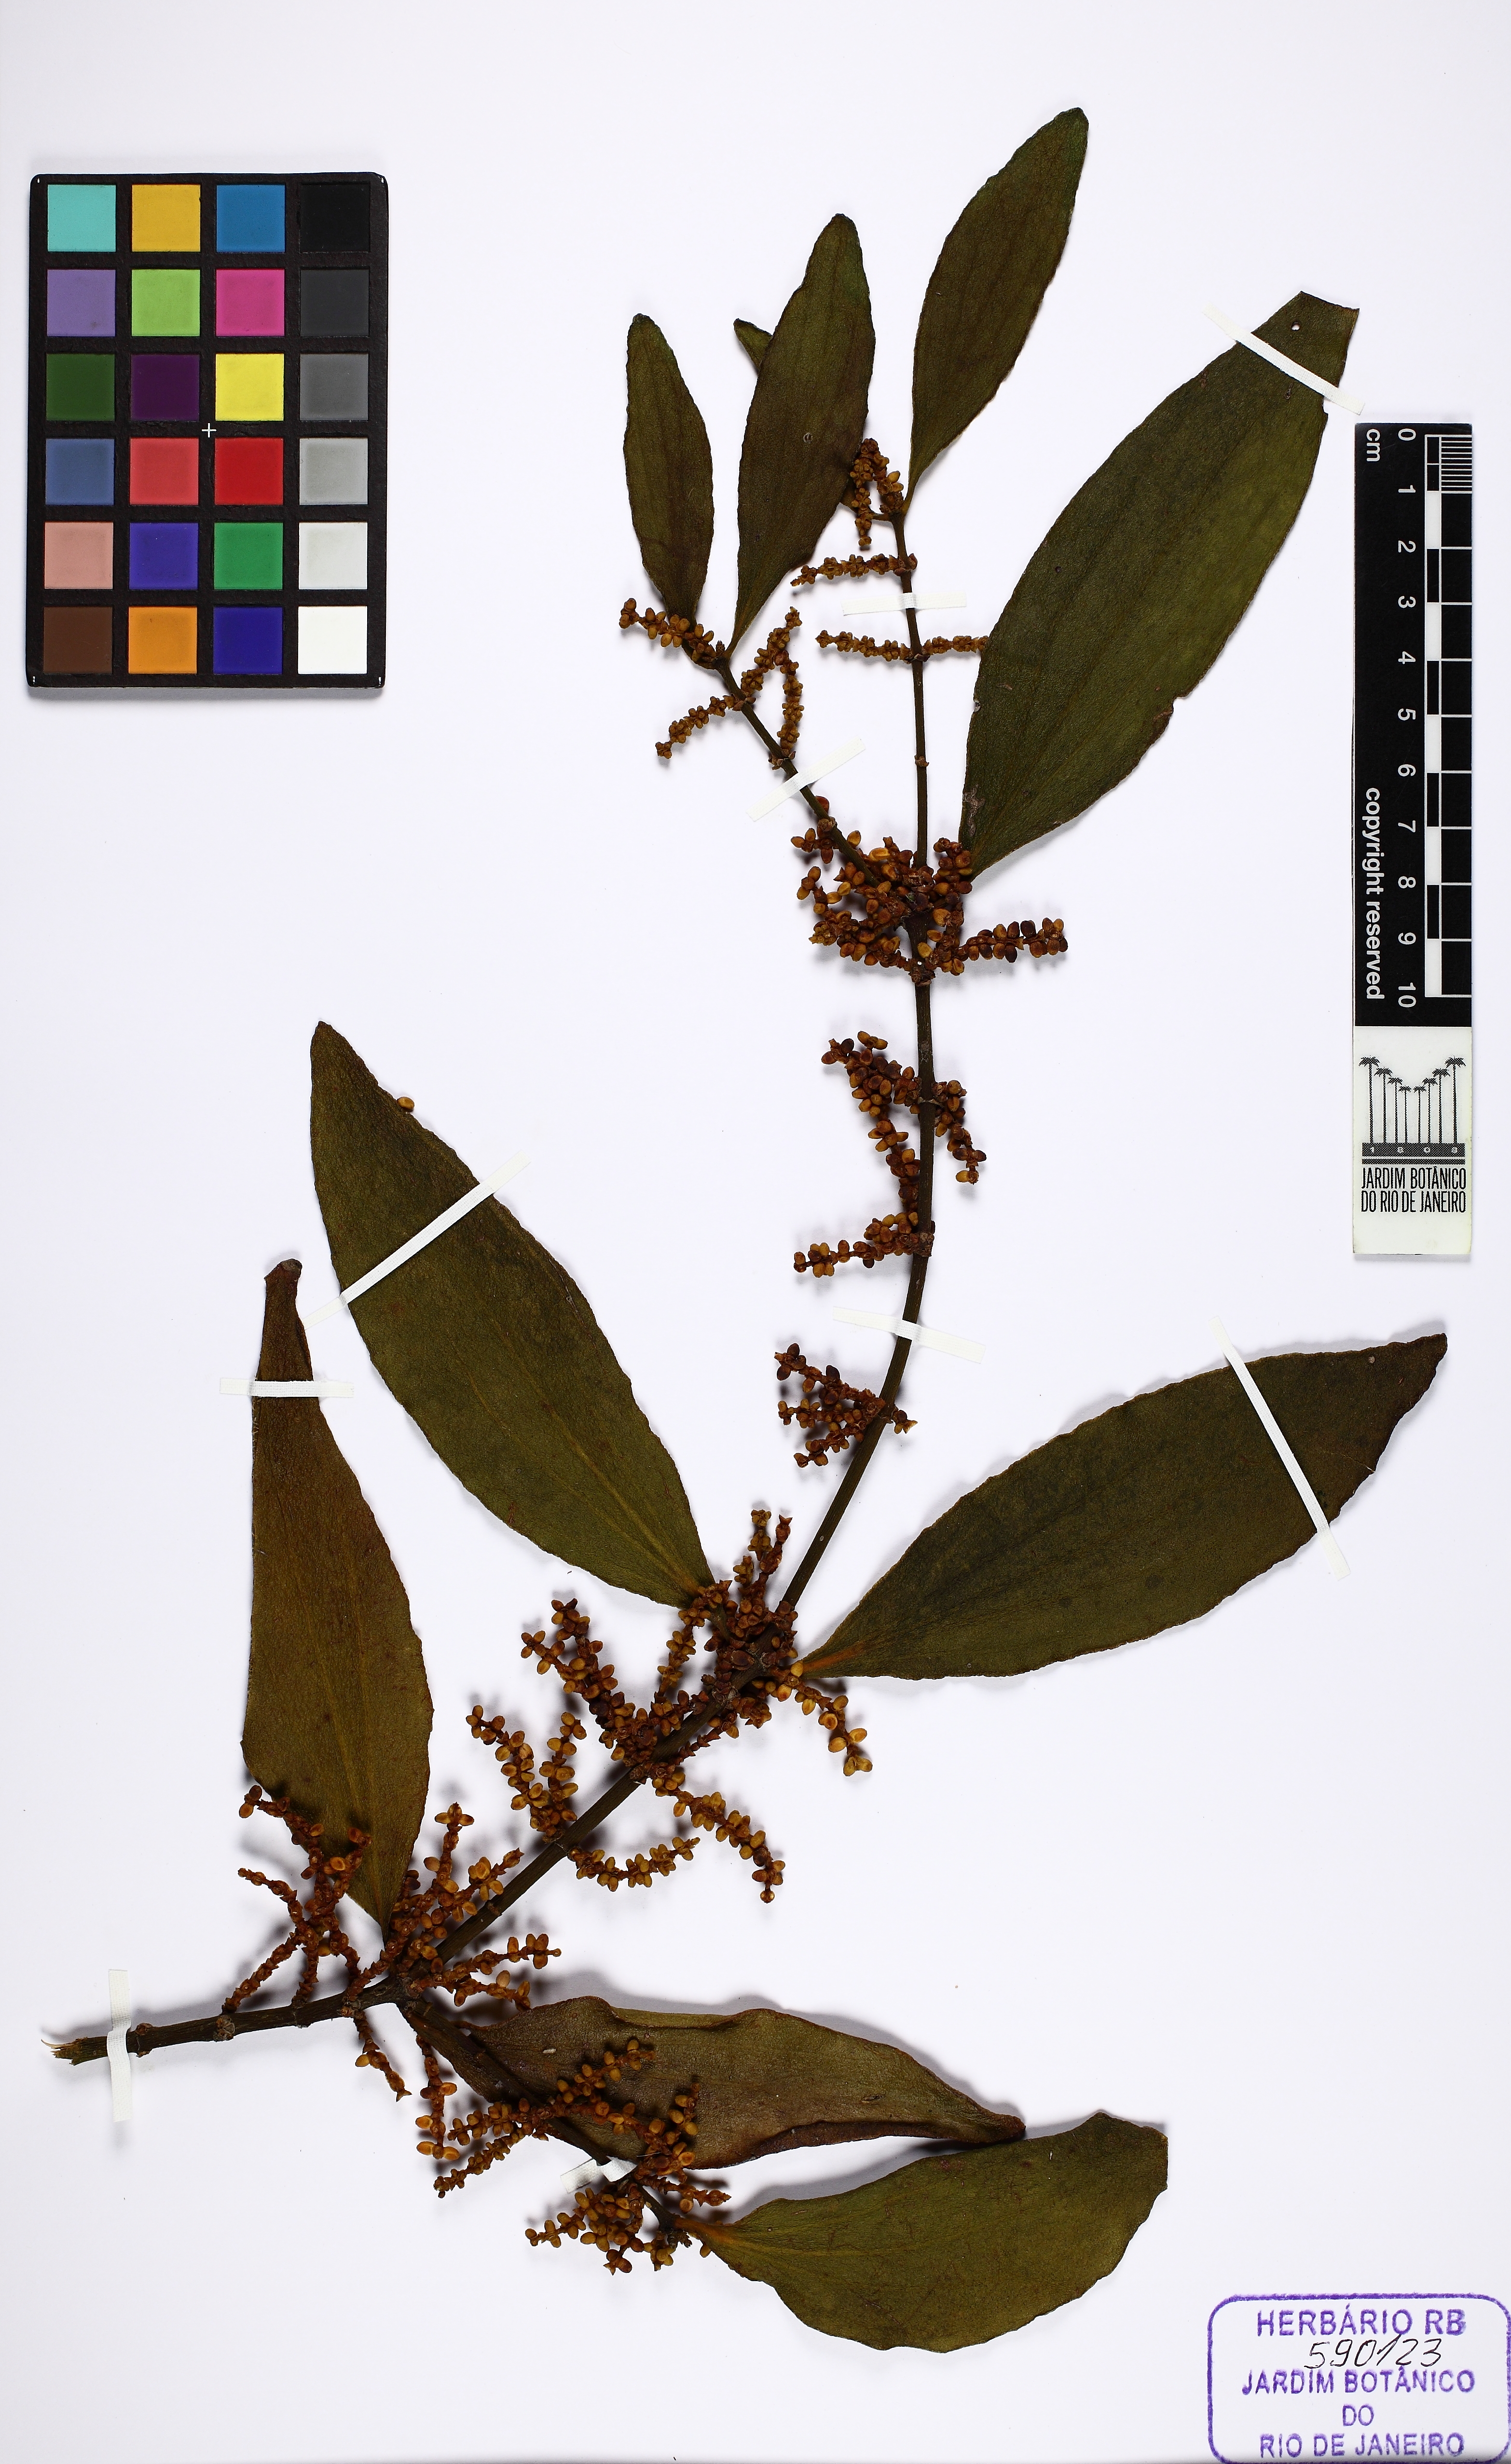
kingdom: Plantae
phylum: Tracheophyta
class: Magnoliopsida
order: Santalales
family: Viscaceae
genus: Phoradendron
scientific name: Phoradendron crassifolium
